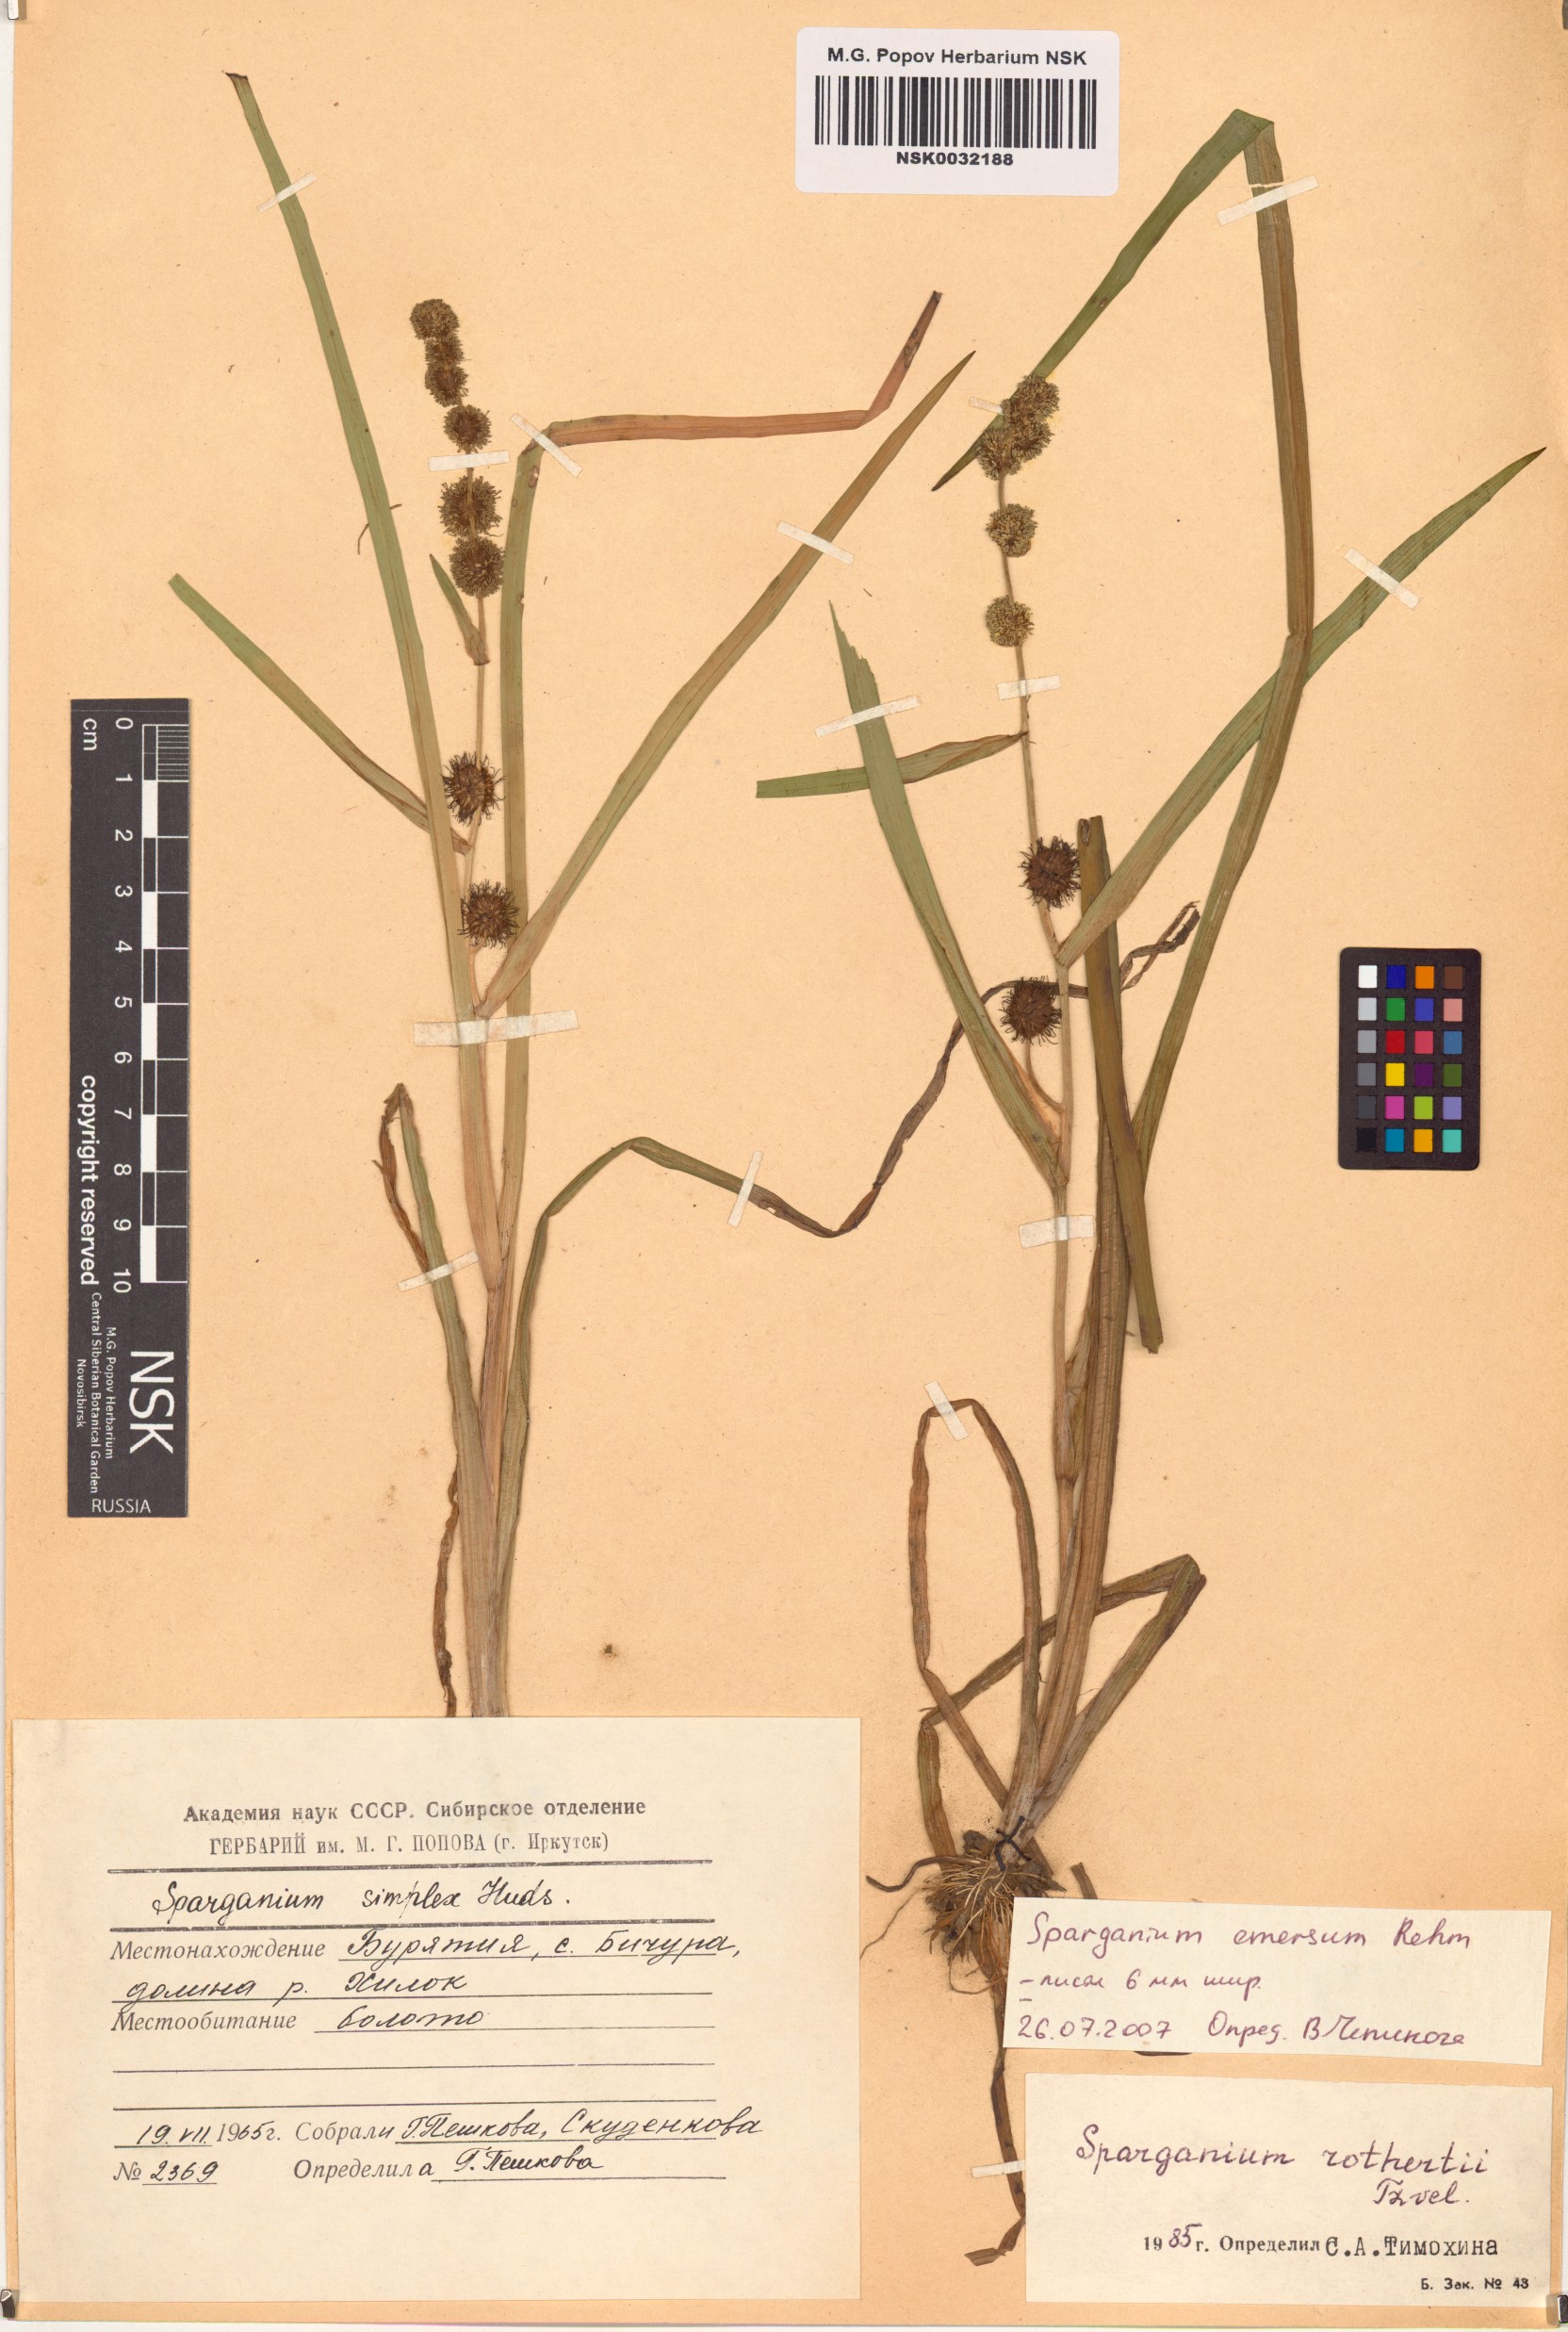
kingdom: Plantae
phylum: Tracheophyta
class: Liliopsida
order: Poales
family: Typhaceae
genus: Sparganium
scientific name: Sparganium emersum
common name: Unbranched bur-reed
